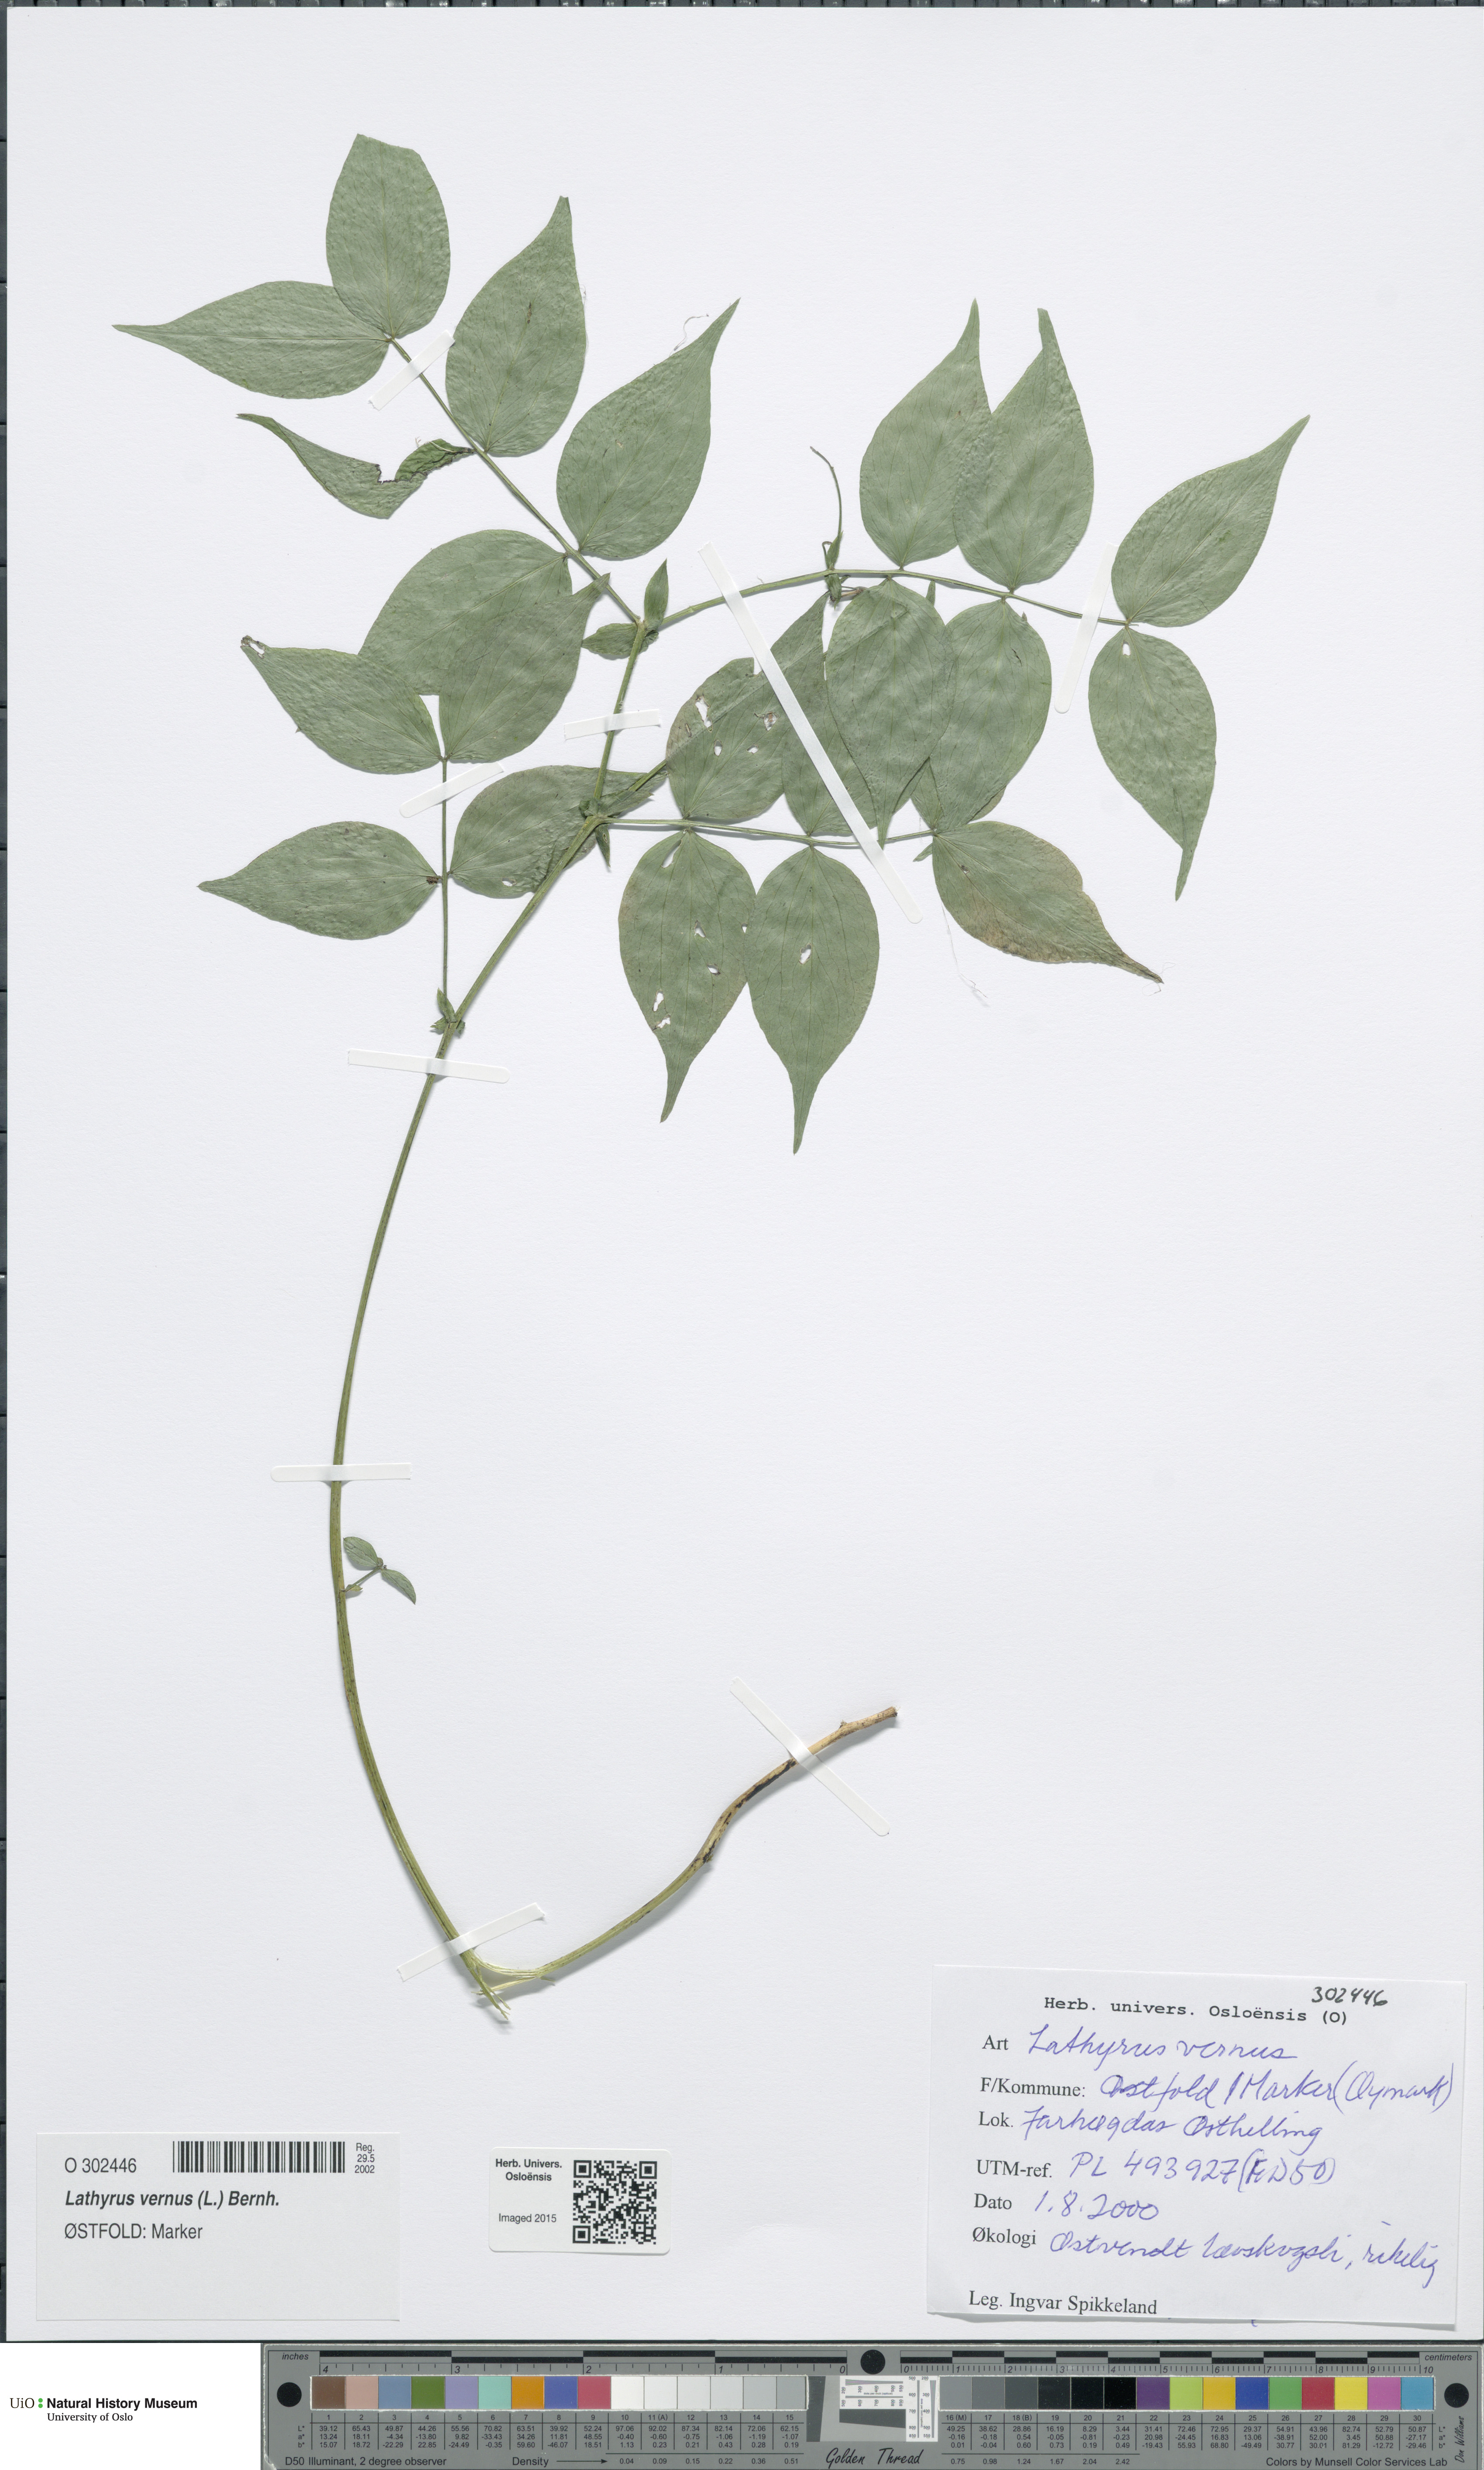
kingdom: Plantae
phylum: Tracheophyta
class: Magnoliopsida
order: Fabales
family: Fabaceae
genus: Lathyrus
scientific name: Lathyrus vernus
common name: Spring pea
